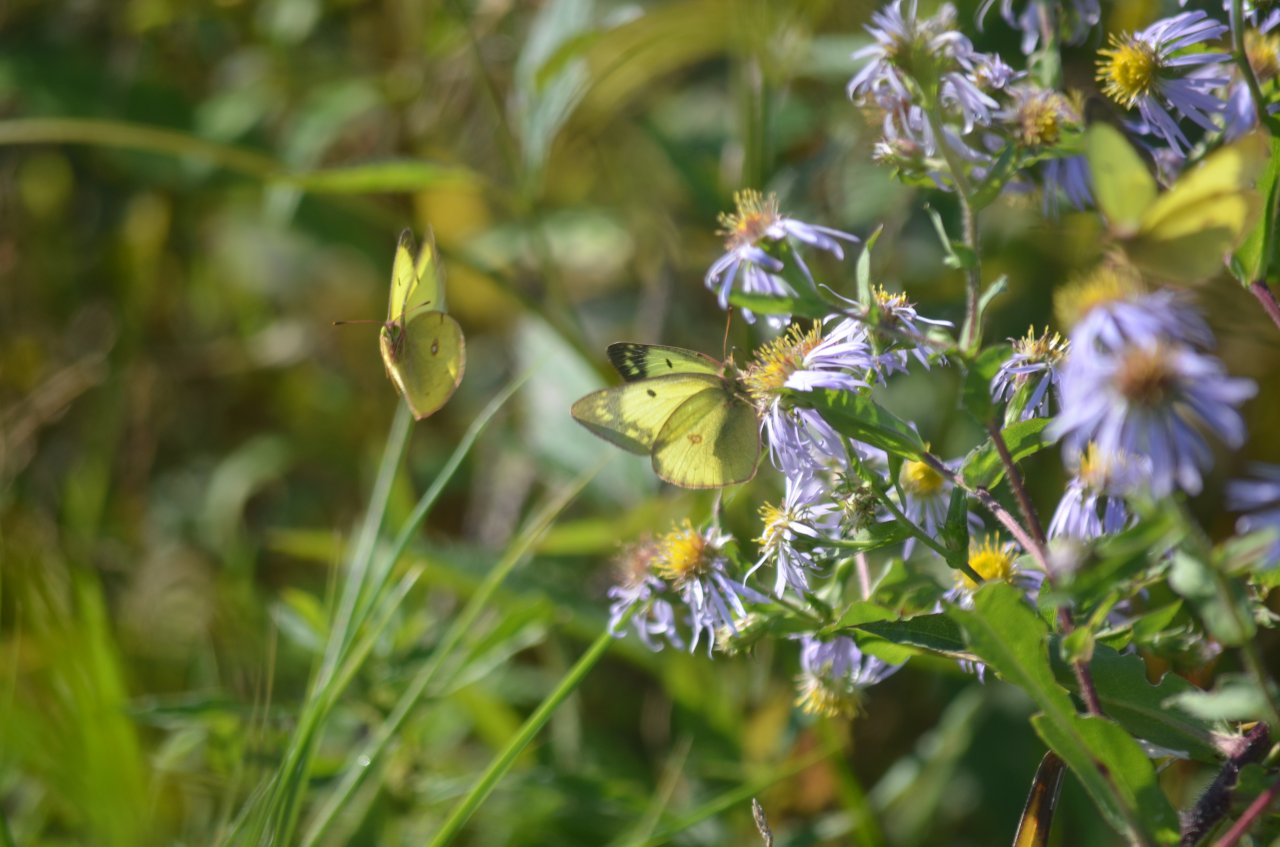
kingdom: Animalia
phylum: Arthropoda
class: Insecta
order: Lepidoptera
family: Pieridae
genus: Colias
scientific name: Colias philodice
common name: Clouded Sulphur
